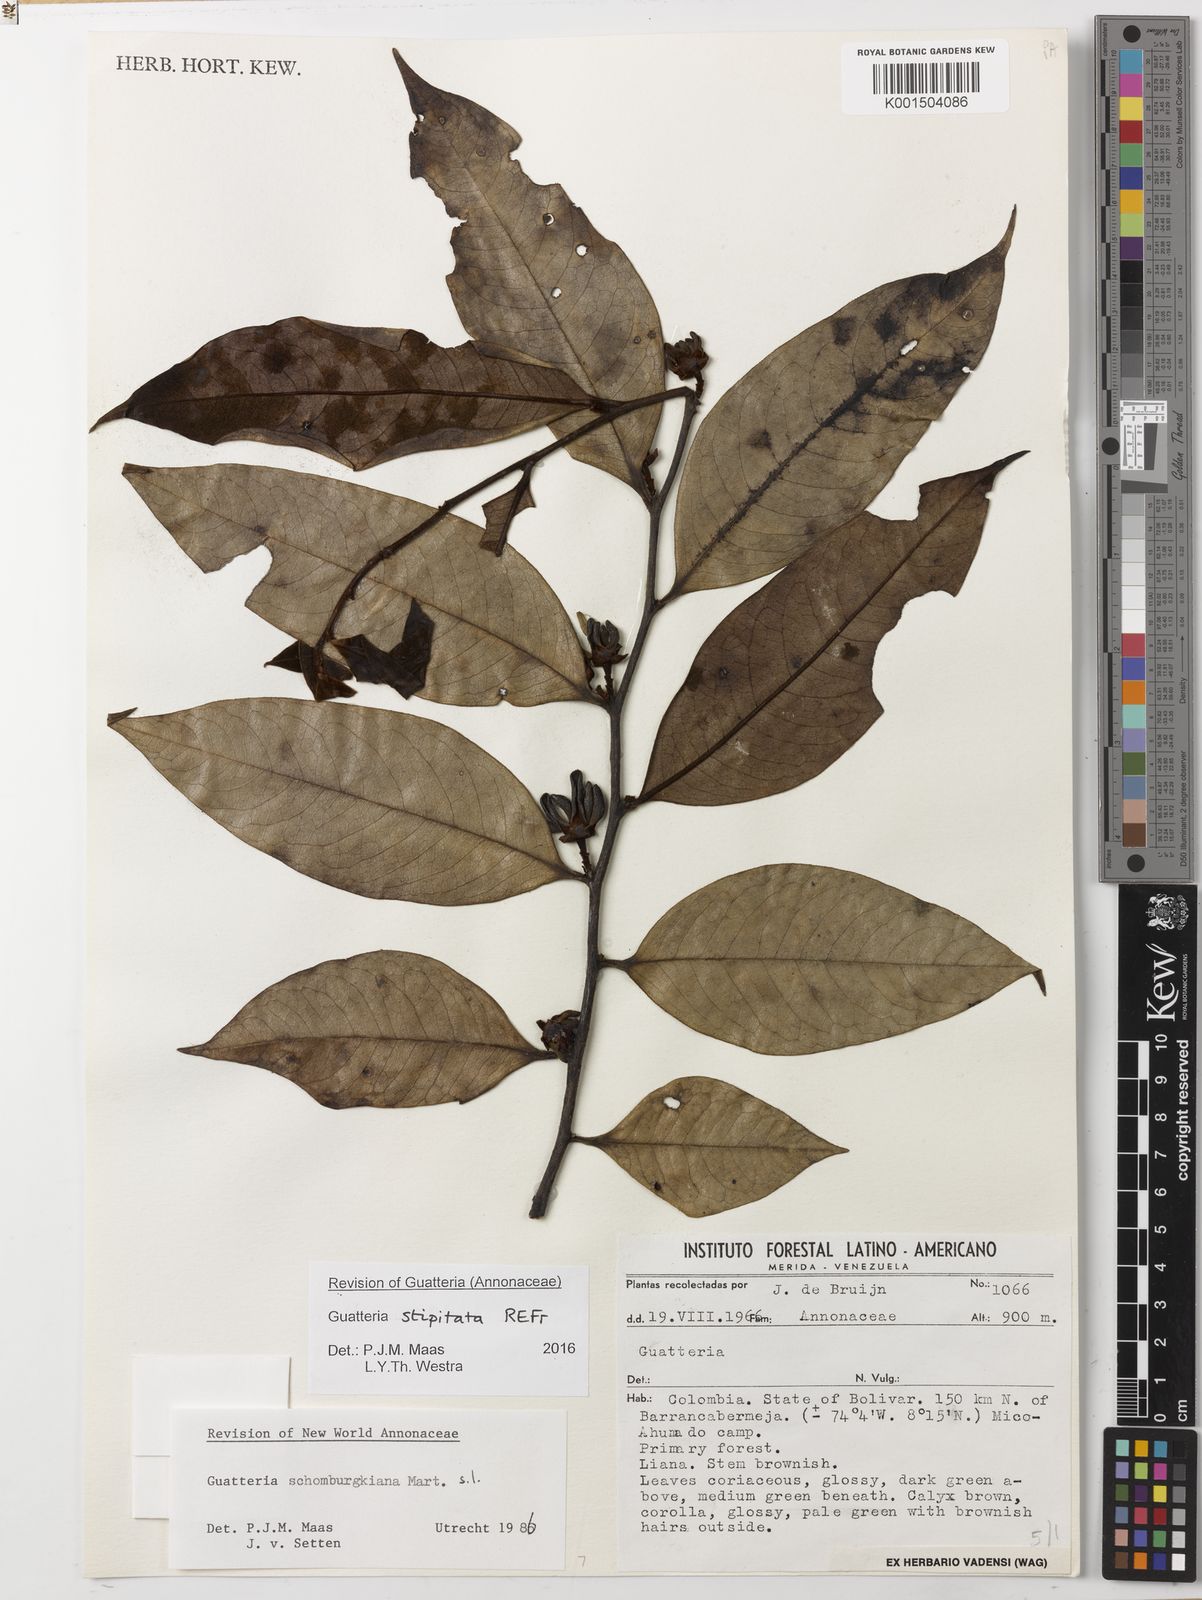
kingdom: Plantae
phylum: Tracheophyta
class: Magnoliopsida
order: Magnoliales
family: Annonaceae
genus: Guatteria
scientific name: Guatteria stipitata
